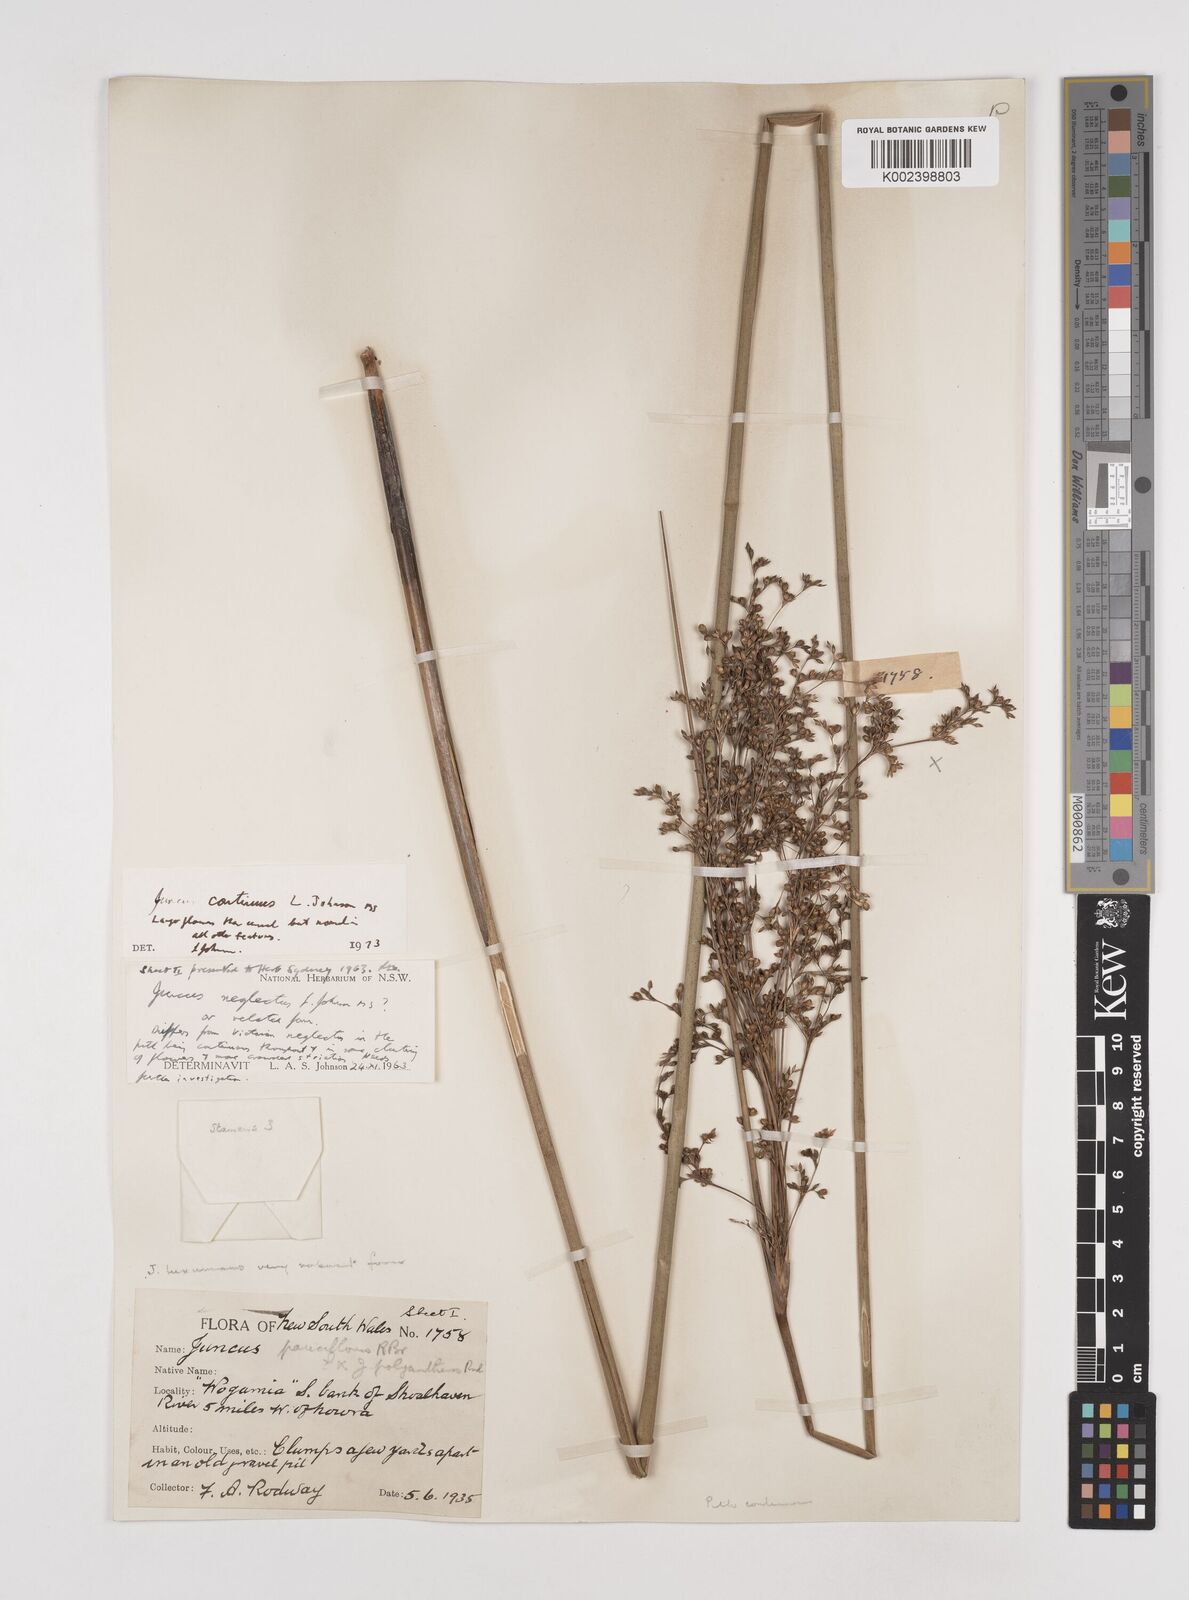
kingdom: Plantae
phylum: Tracheophyta
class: Liliopsida
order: Poales
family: Juncaceae
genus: Juncus
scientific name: Juncus continuus
